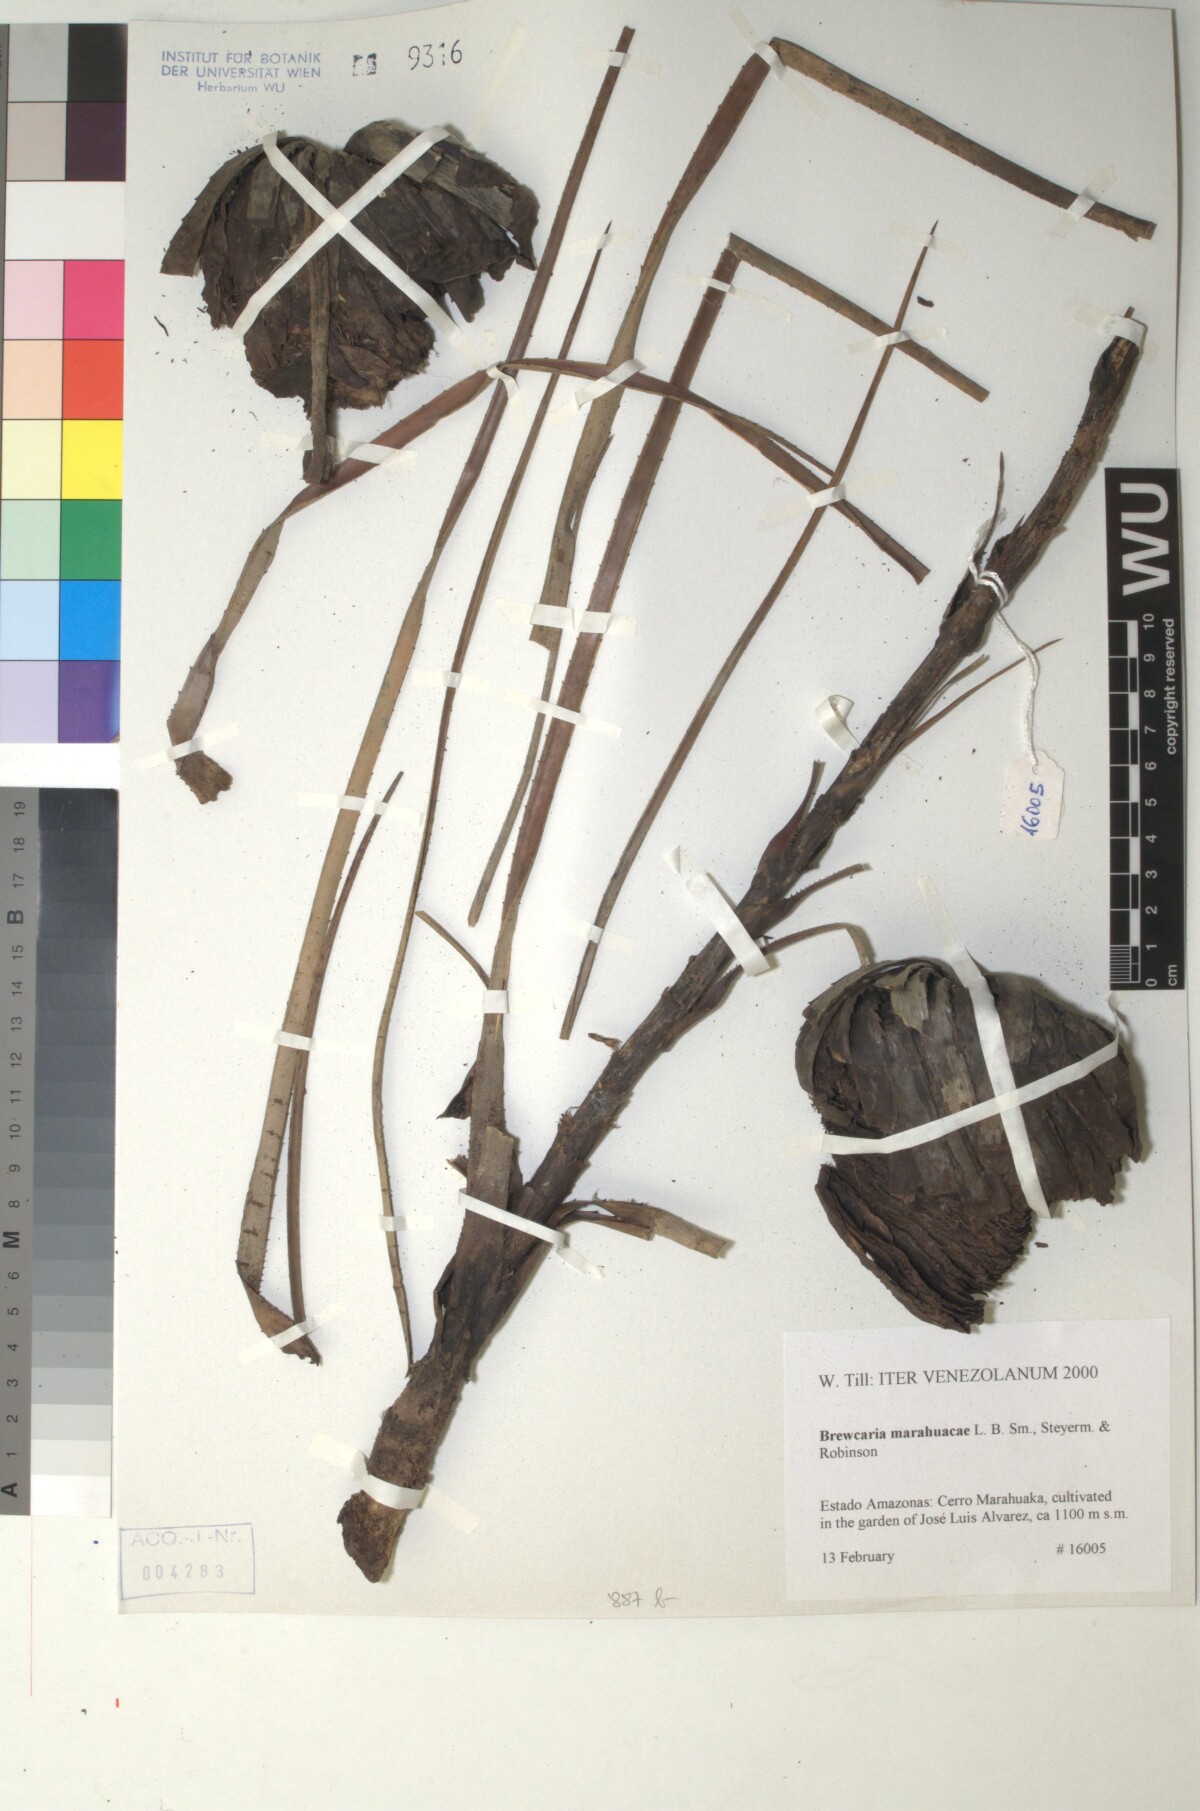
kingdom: Plantae
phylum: Tracheophyta
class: Liliopsida
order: Poales
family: Bromeliaceae
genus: Navia
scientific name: Navia marahuacae
